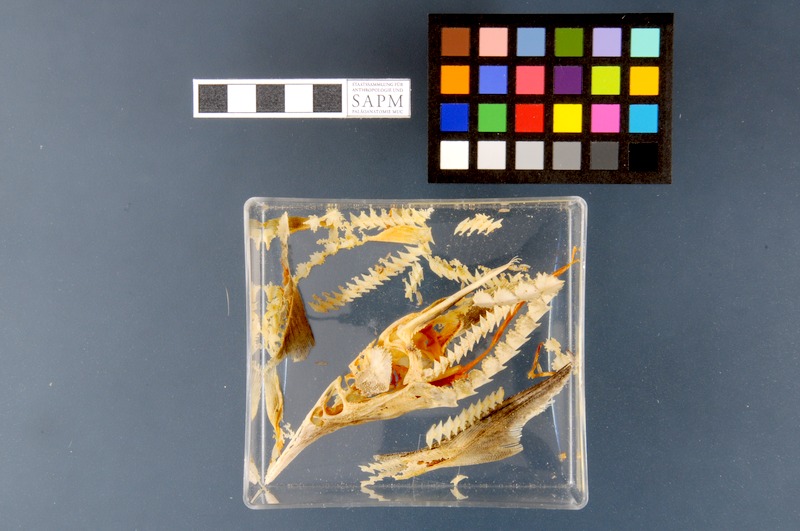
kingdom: Animalia
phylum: Chordata
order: Acipenseriformes
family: Acipenseridae
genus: Acipenser
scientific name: Acipenser ruthenus
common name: Sterlet
